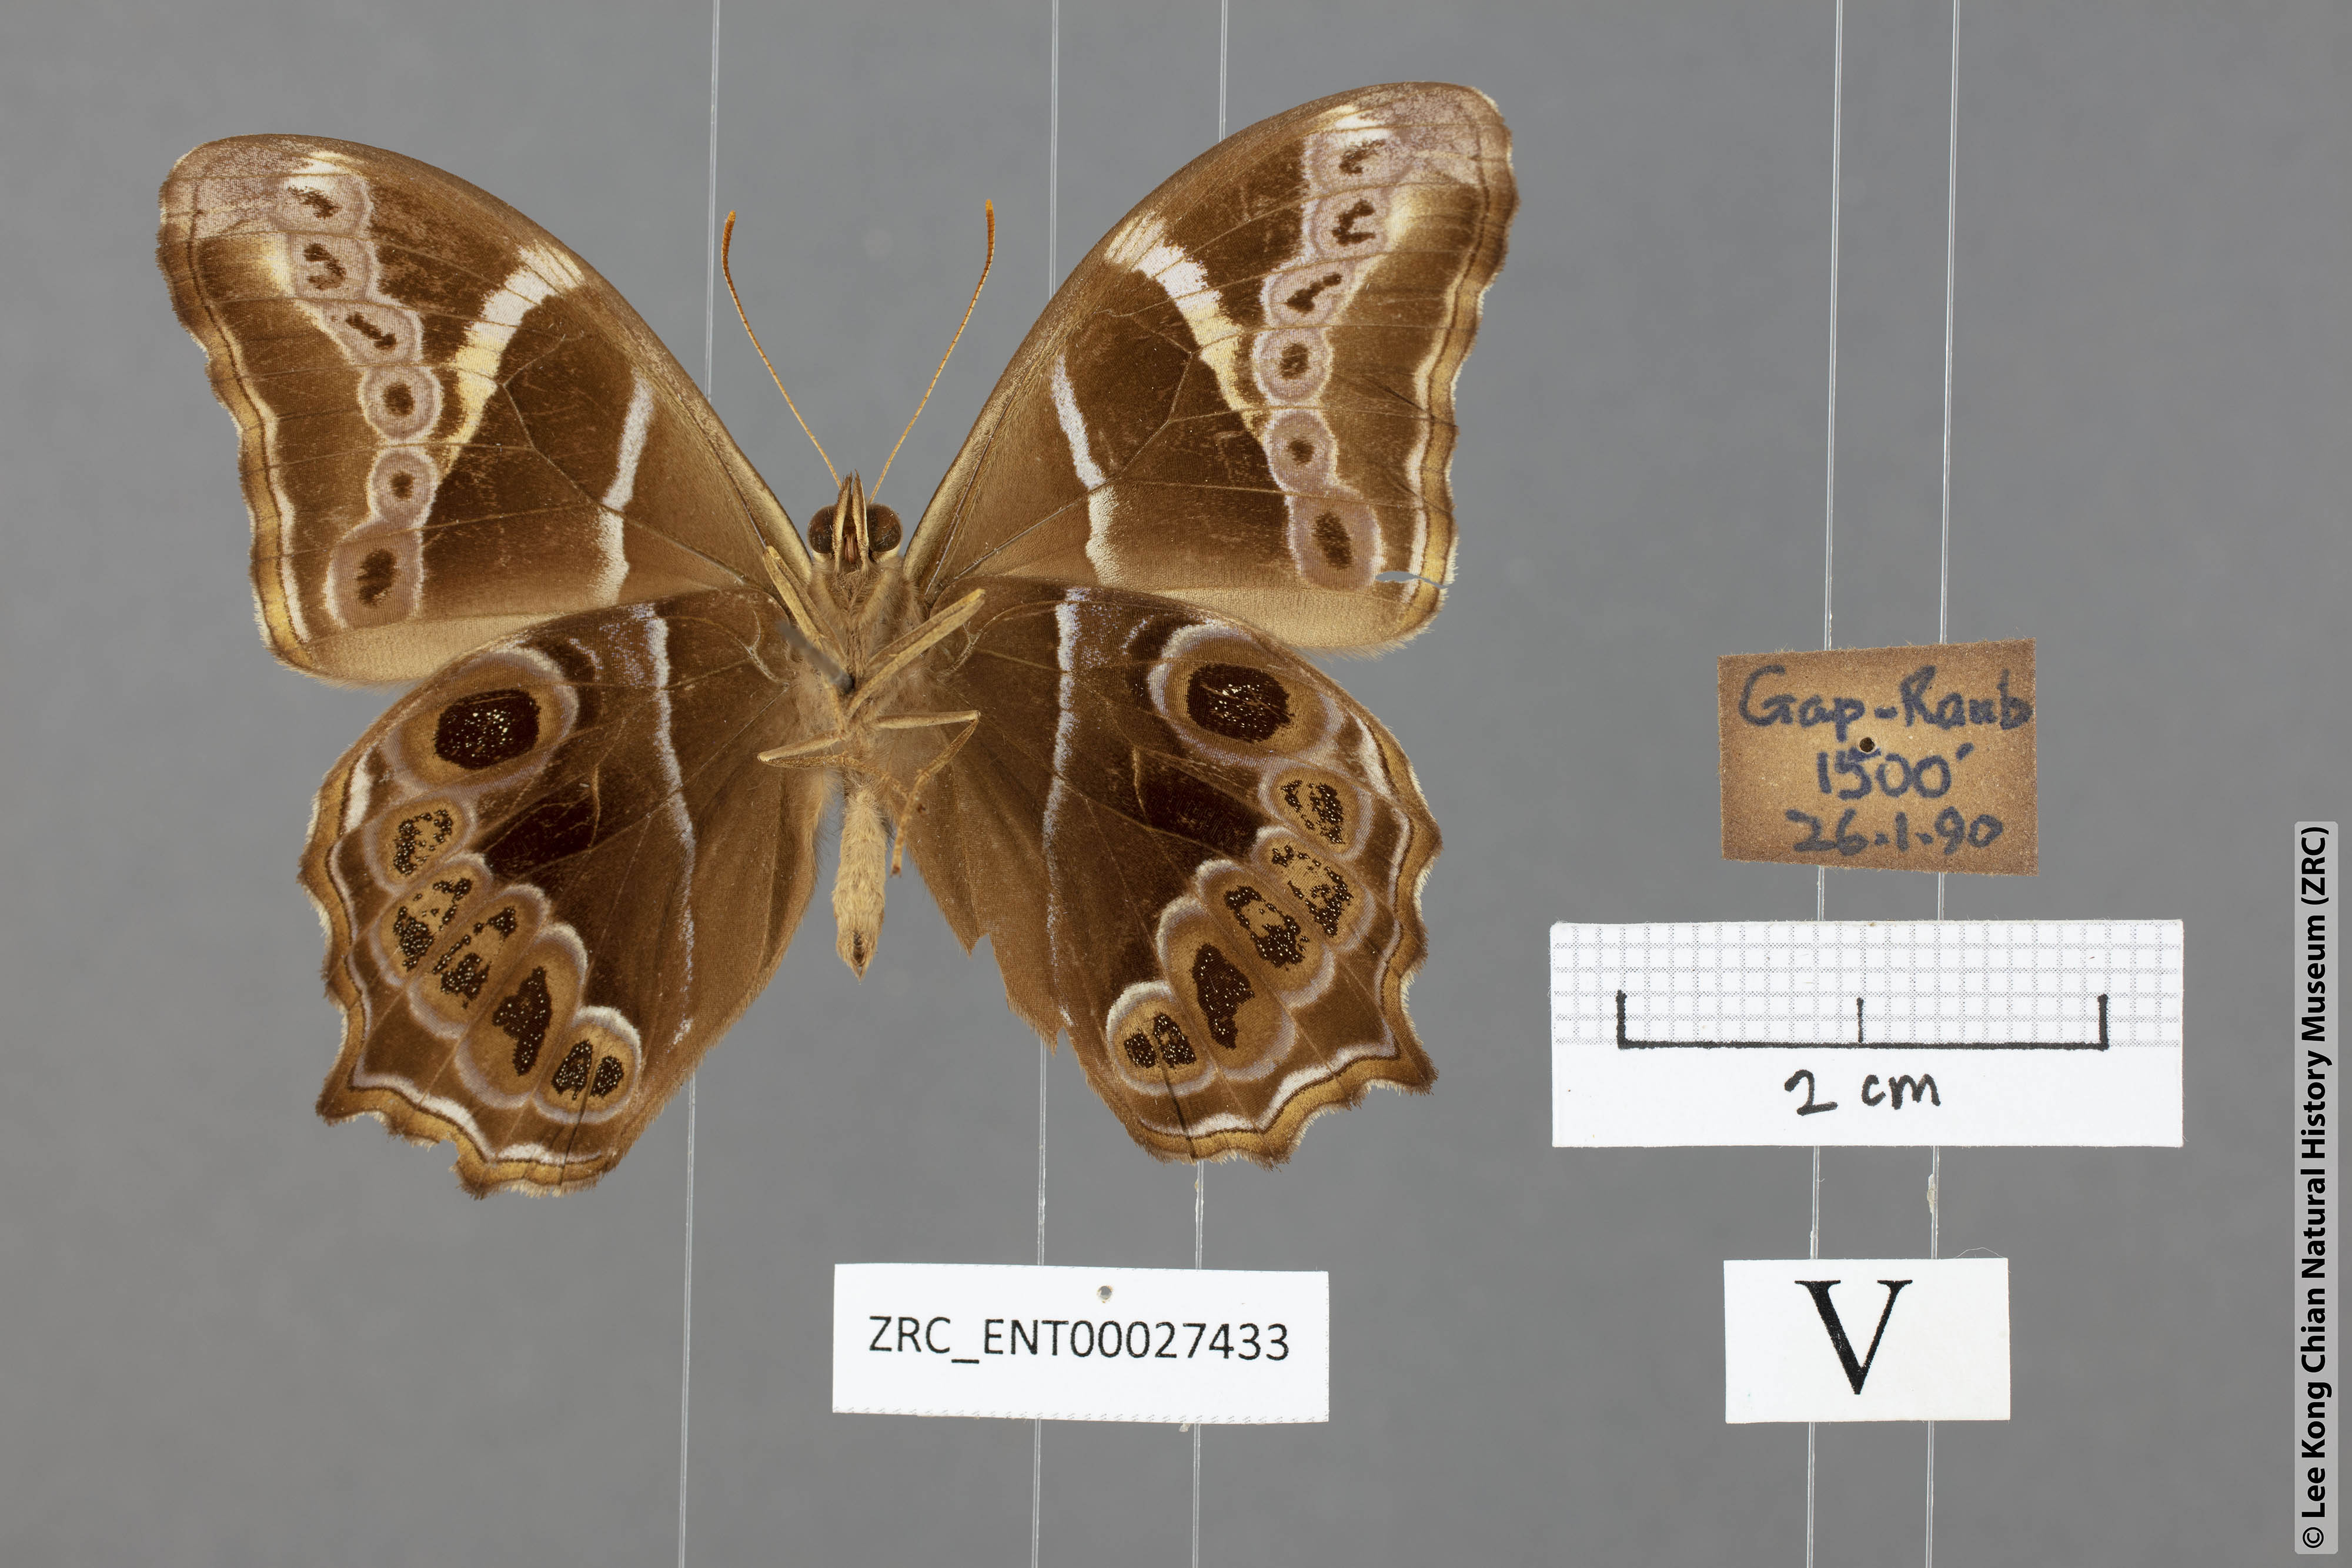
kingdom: Animalia
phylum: Arthropoda
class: Insecta
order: Lepidoptera
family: Nymphalidae
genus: Lethe
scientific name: Lethe europa
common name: Bamboo treebrown
